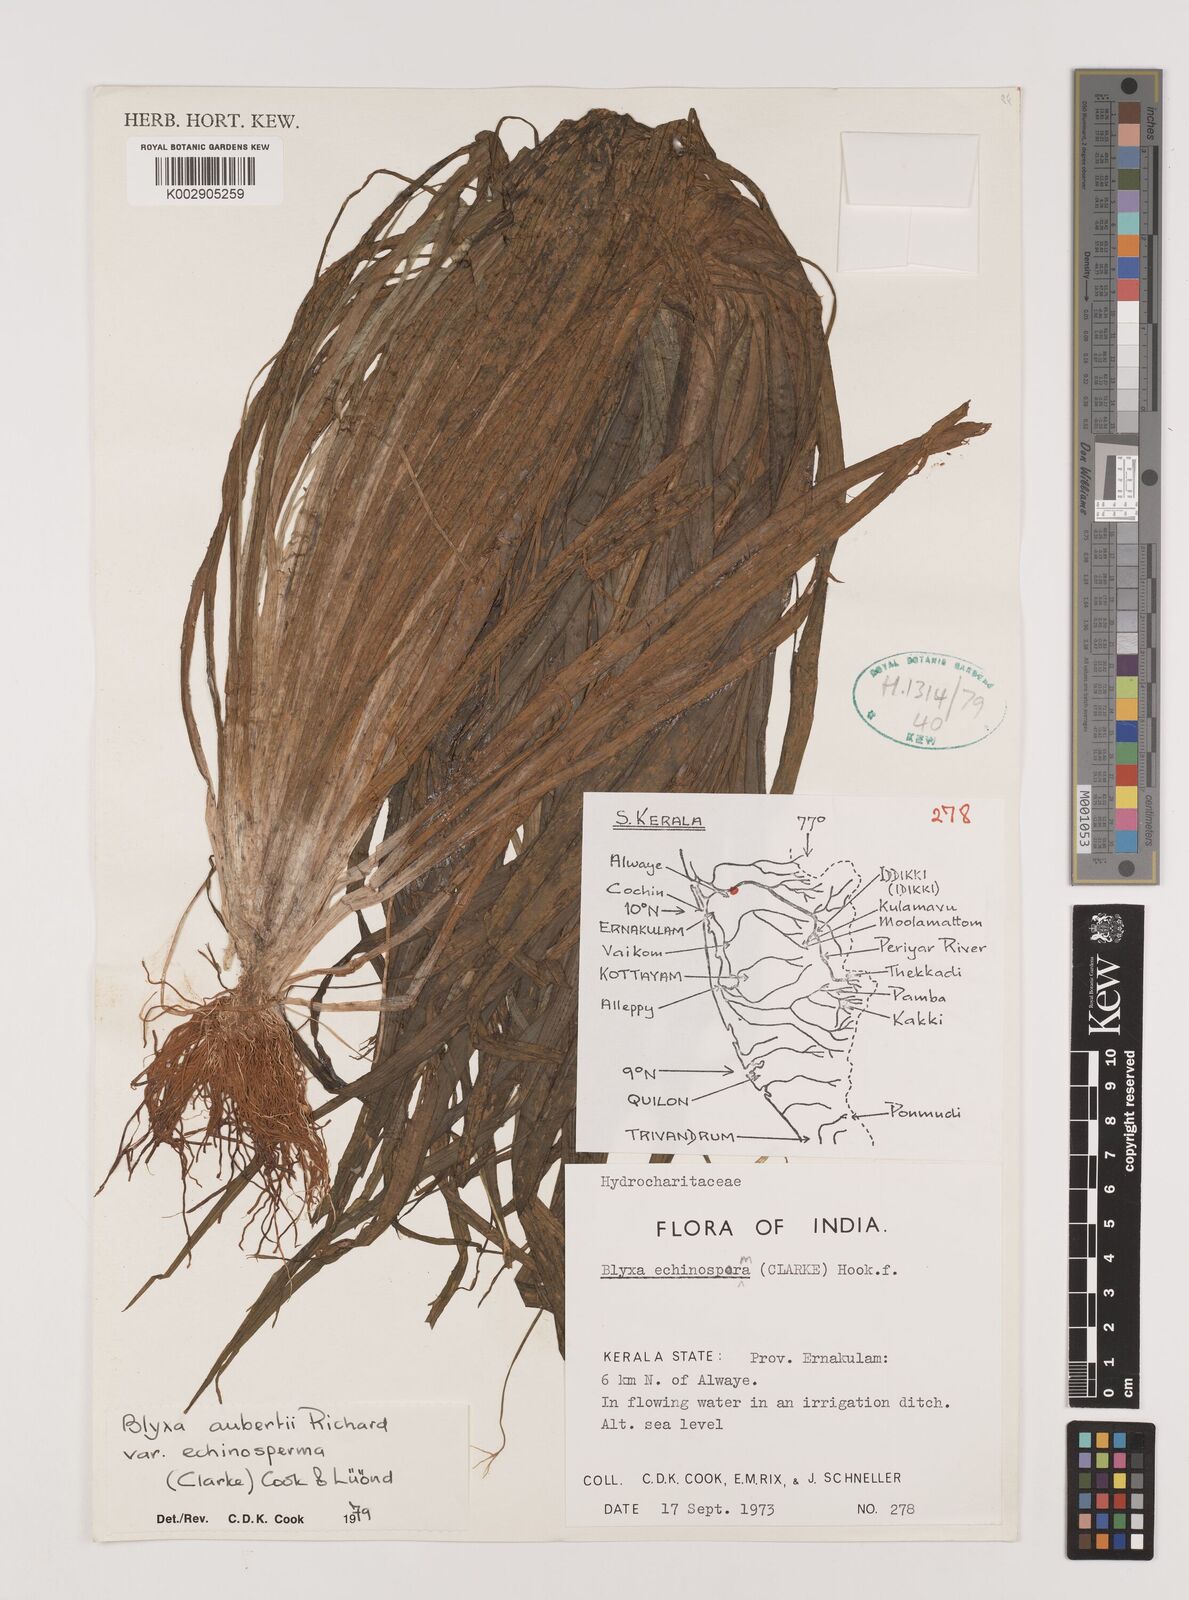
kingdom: Plantae
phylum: Tracheophyta
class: Liliopsida
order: Alismatales
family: Hydrocharitaceae
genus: Blyxa
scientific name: Blyxa echinosperma
